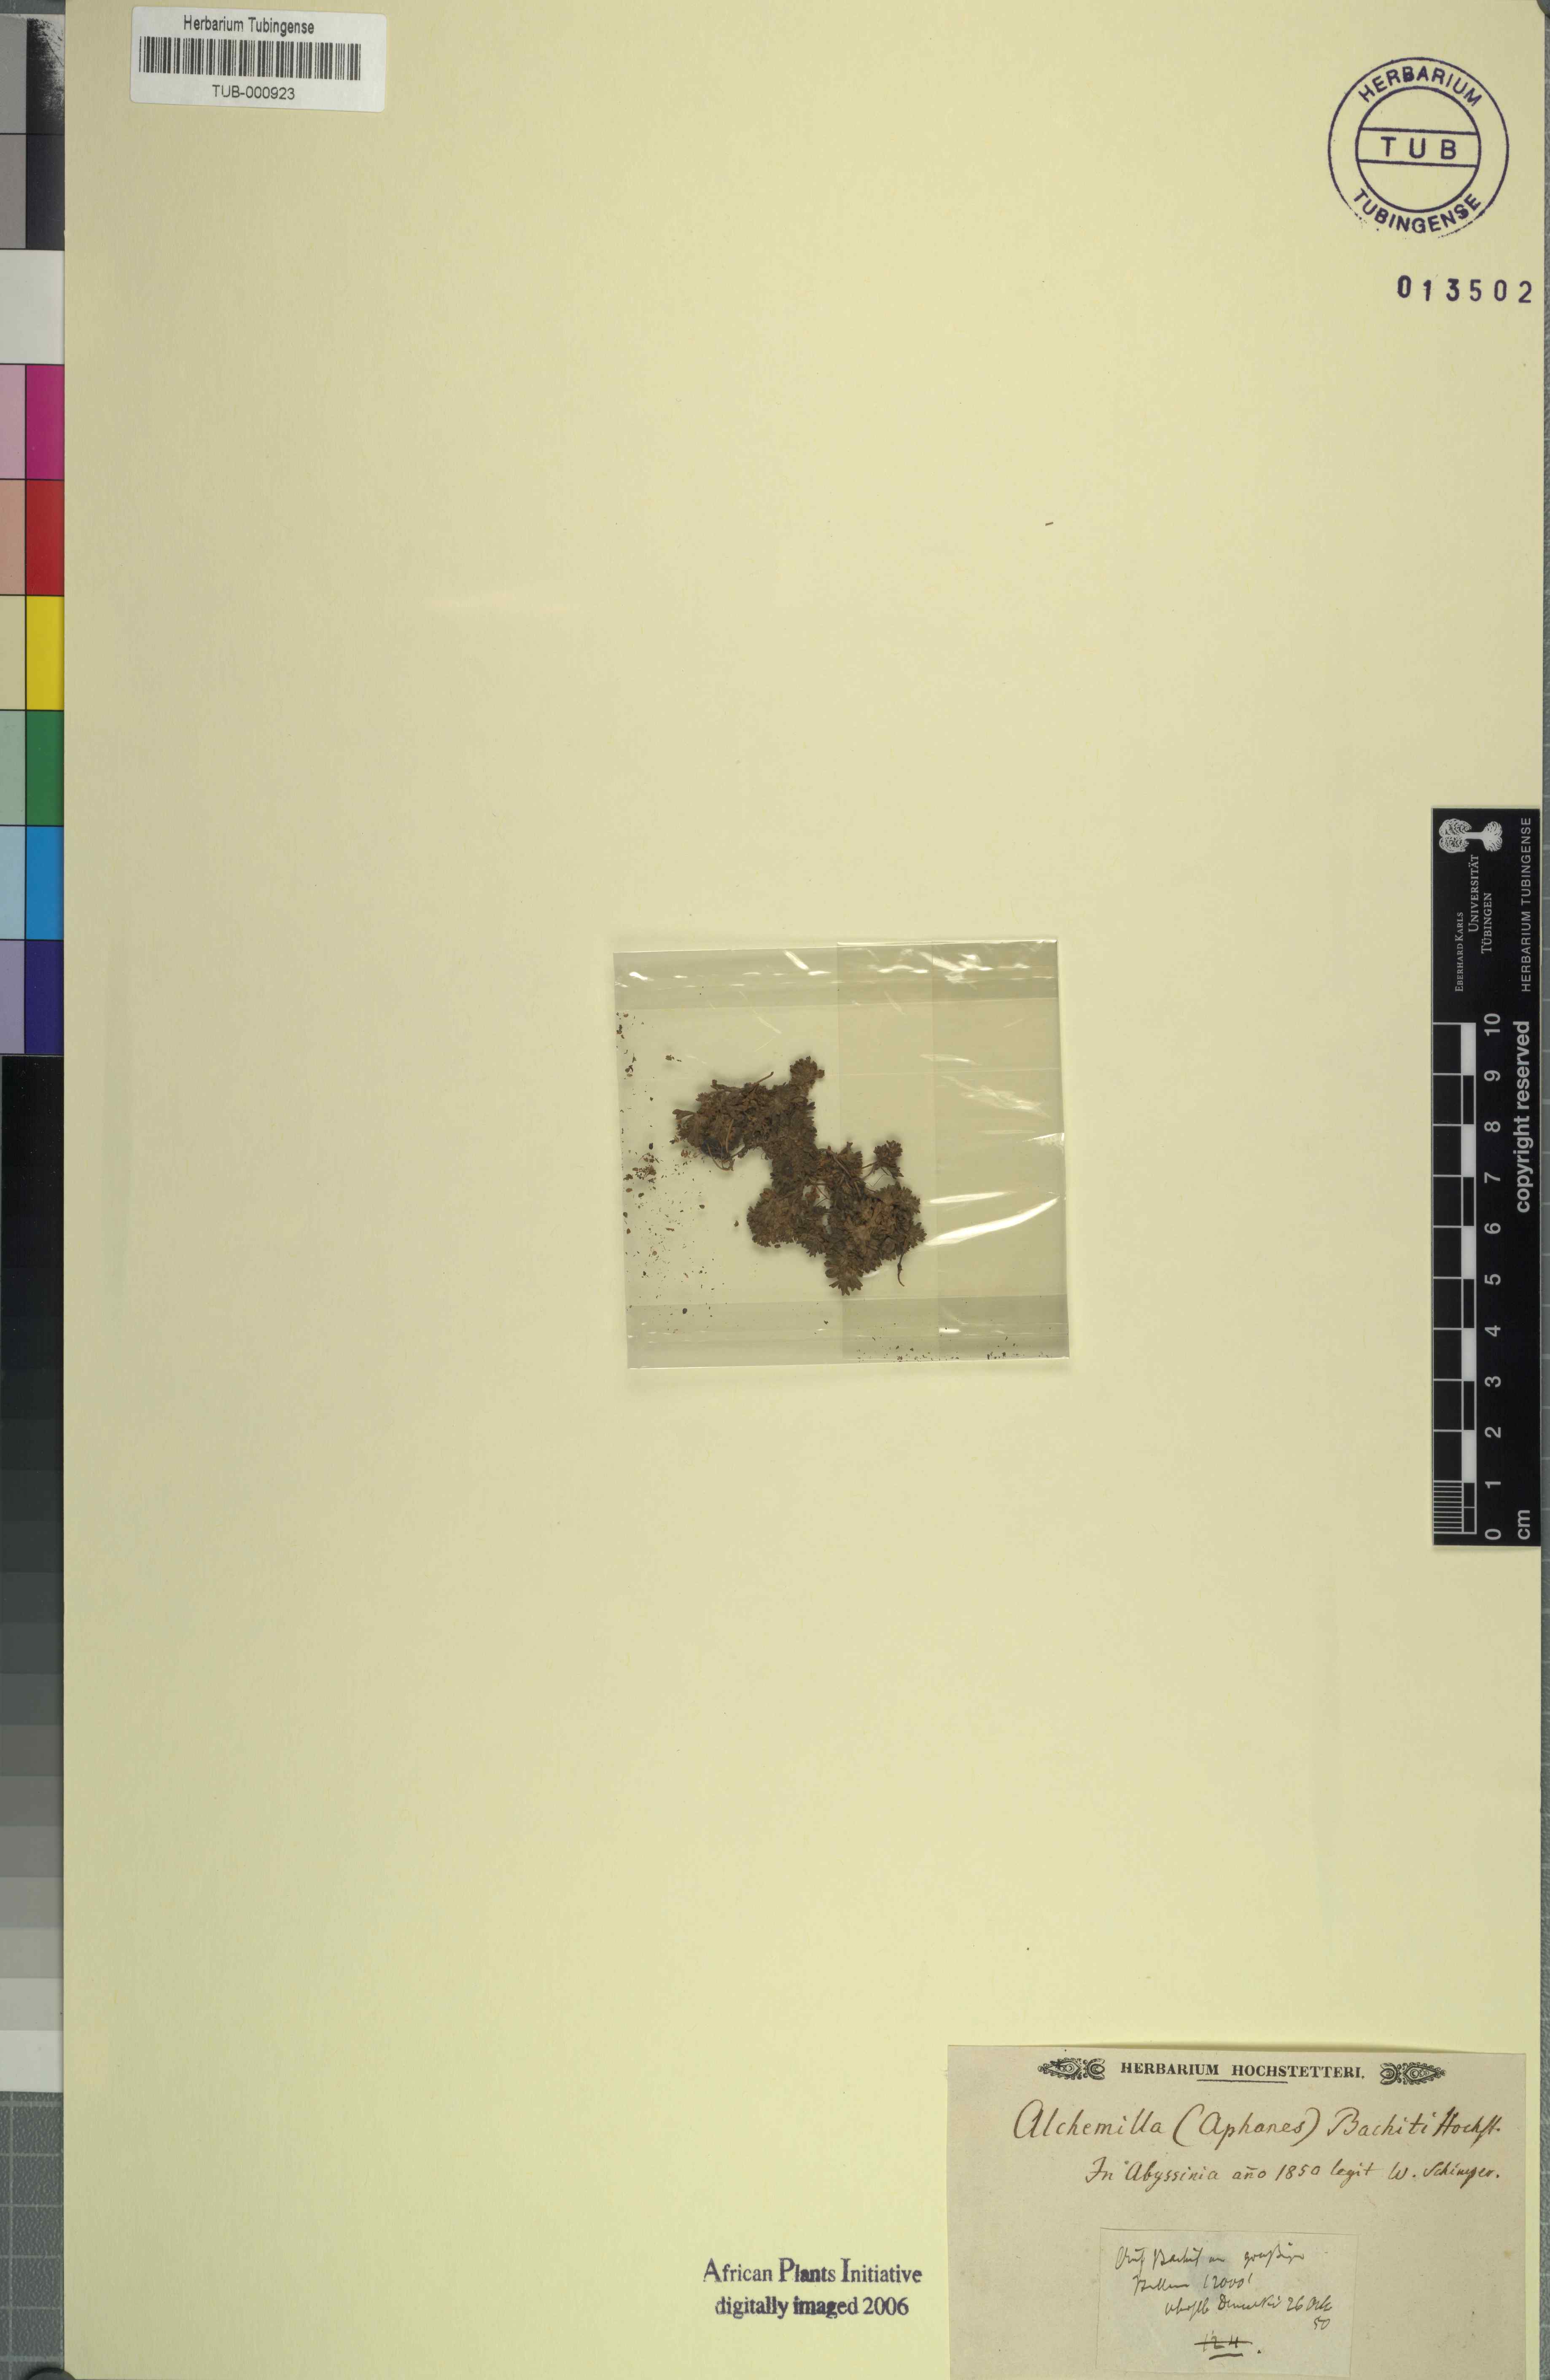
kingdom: Plantae
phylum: Tracheophyta
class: Magnoliopsida
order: Rosales
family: Rosaceae
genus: Aphanes
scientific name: Aphanes bachiti
